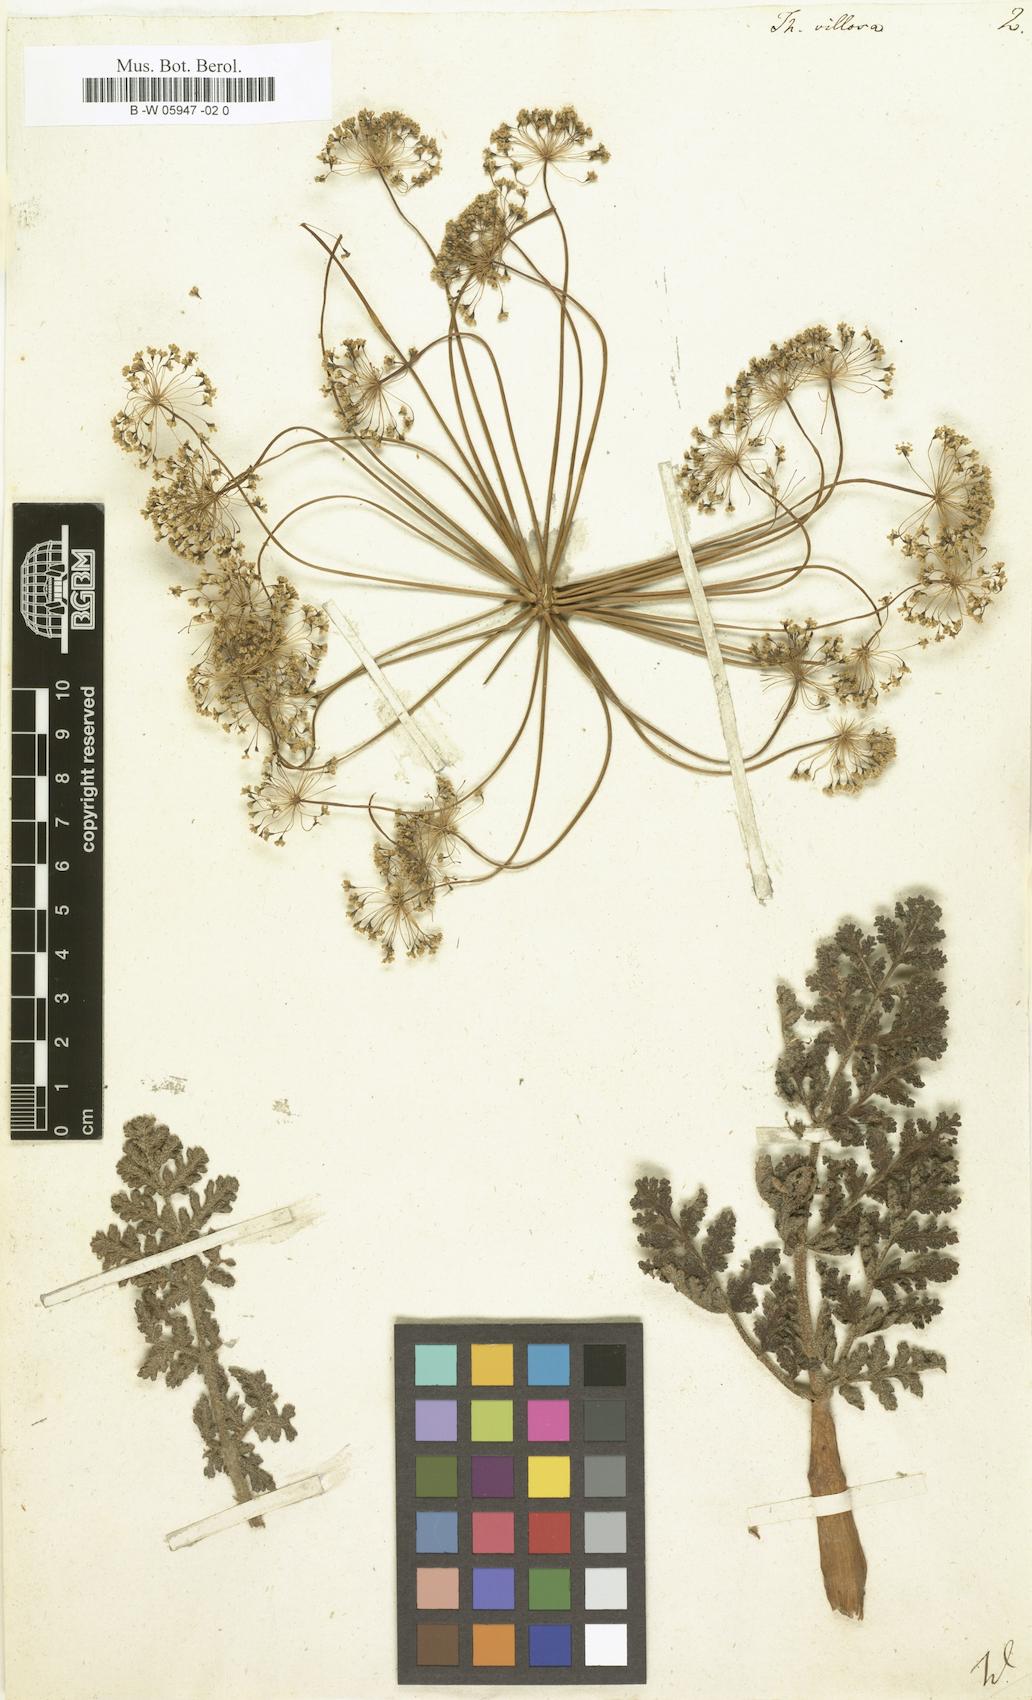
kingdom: Plantae
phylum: Tracheophyta
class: Magnoliopsida
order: Apiales
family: Apiaceae
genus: Thapsia
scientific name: Thapsia villosa
